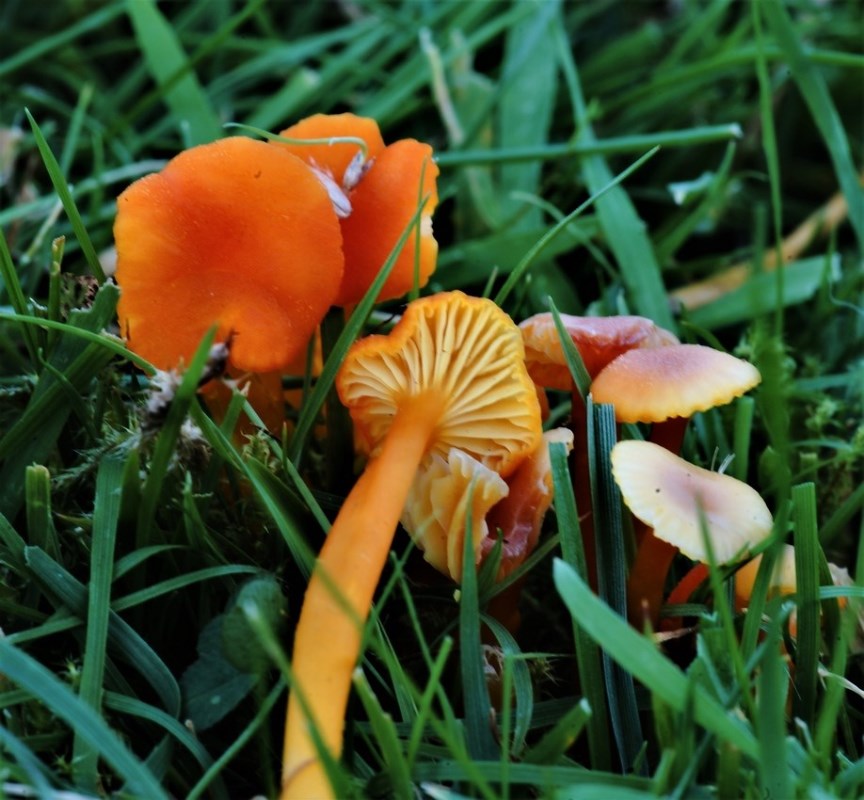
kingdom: Fungi
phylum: Basidiomycota
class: Agaricomycetes
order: Agaricales
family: Hygrophoraceae
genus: Hygrocybe
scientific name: Hygrocybe cantharellus
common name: kantarel-vokshat
